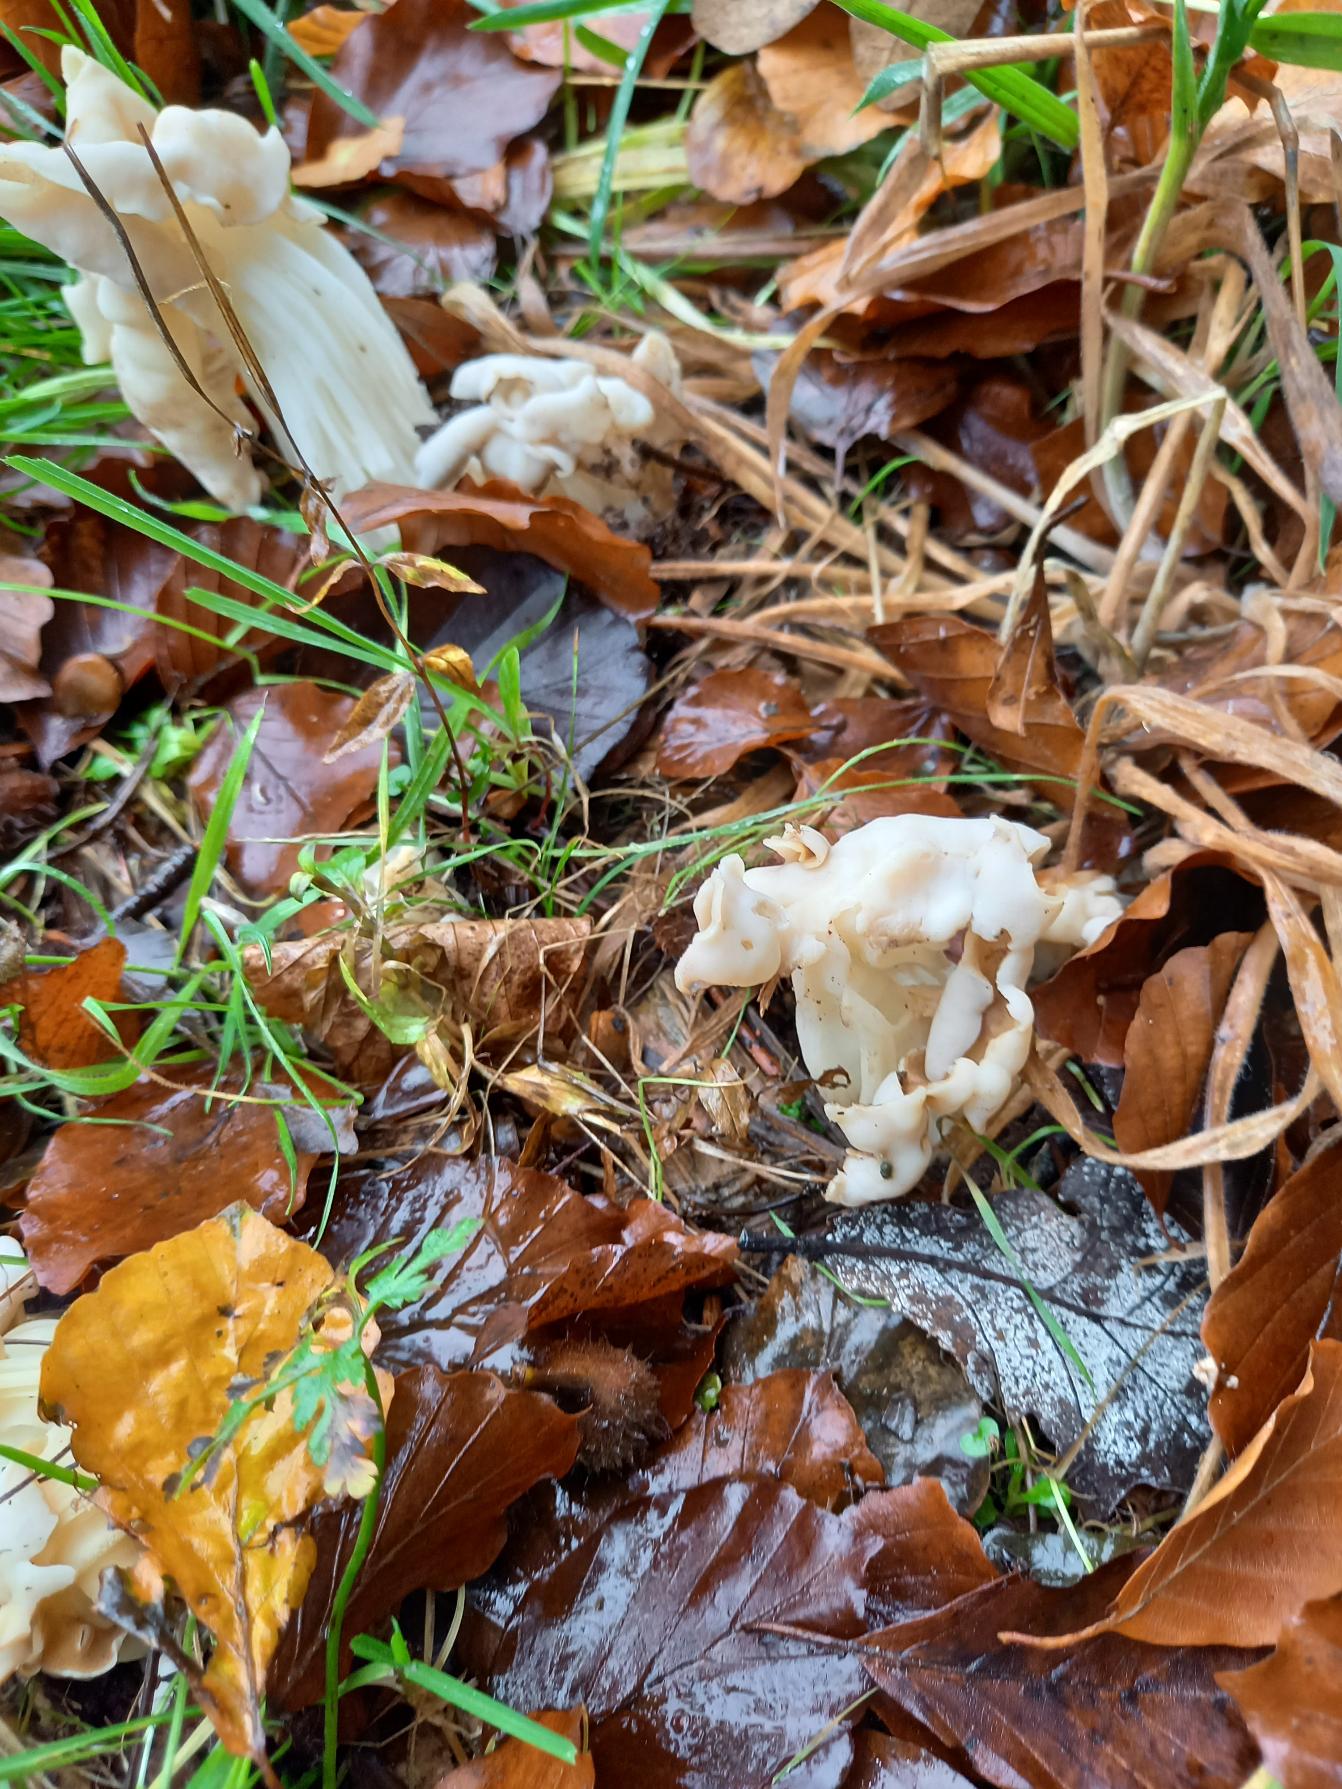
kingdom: Fungi
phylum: Ascomycota
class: Pezizomycetes
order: Pezizales
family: Helvellaceae
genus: Helvella
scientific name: Helvella crispa
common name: Kruset foldhat
